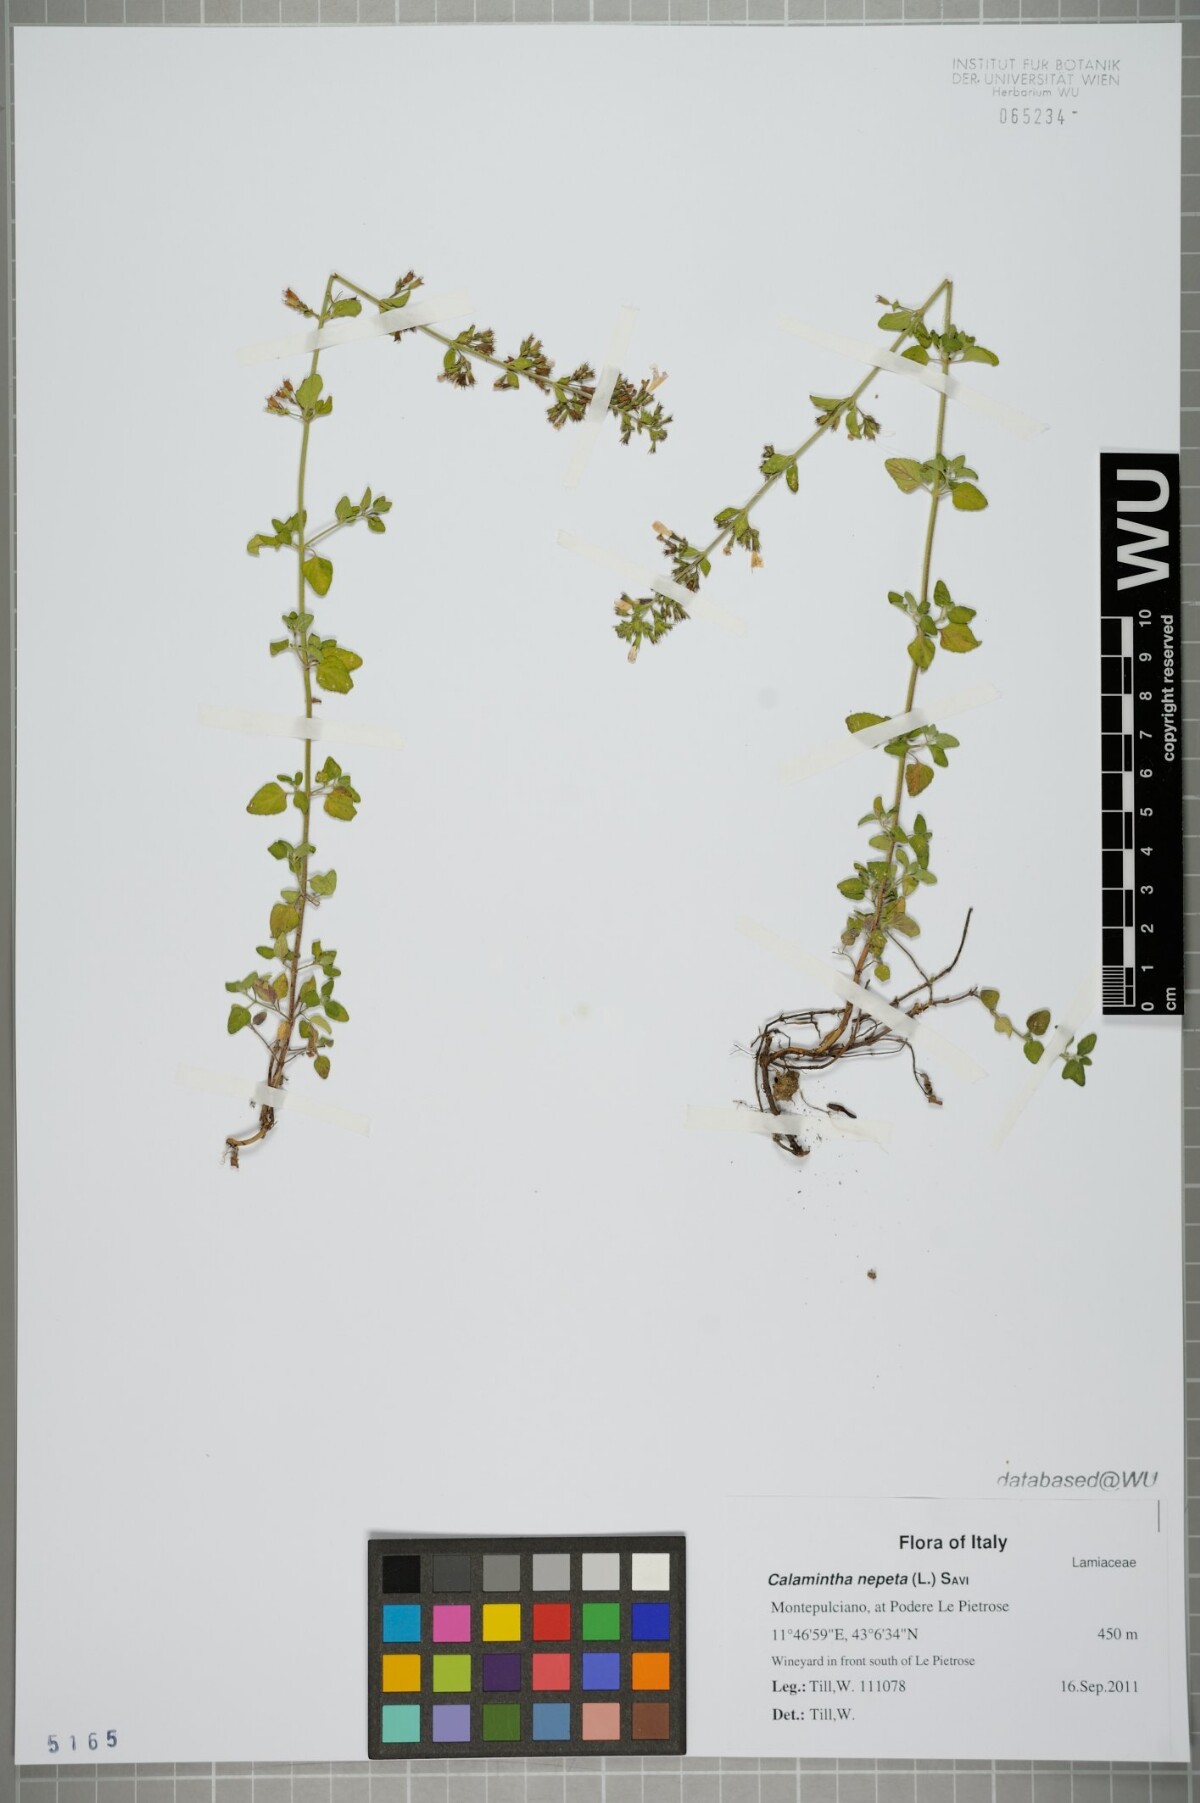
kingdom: Plantae
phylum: Tracheophyta
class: Magnoliopsida
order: Lamiales
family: Lamiaceae
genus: Clinopodium
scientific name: Clinopodium nepeta
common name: Lesser calamint
